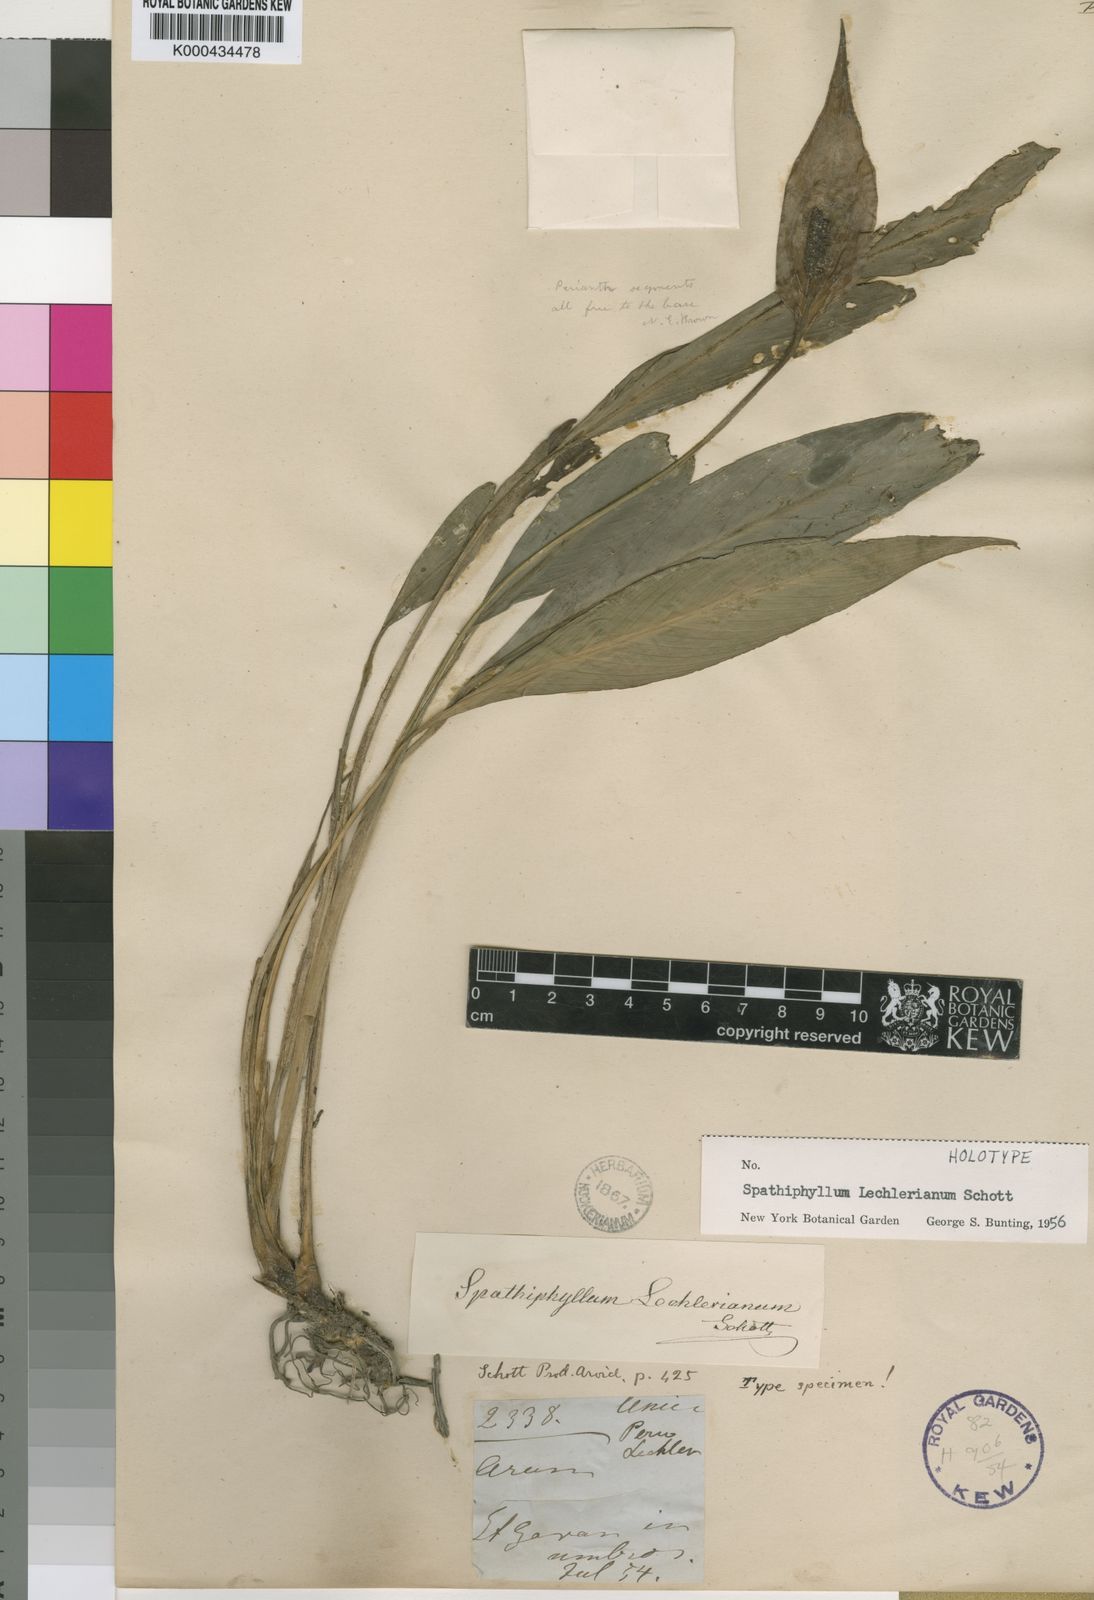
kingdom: Plantae
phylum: Tracheophyta
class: Liliopsida
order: Alismatales
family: Araceae
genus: Spathiphyllum
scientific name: Spathiphyllum lechlerianum
